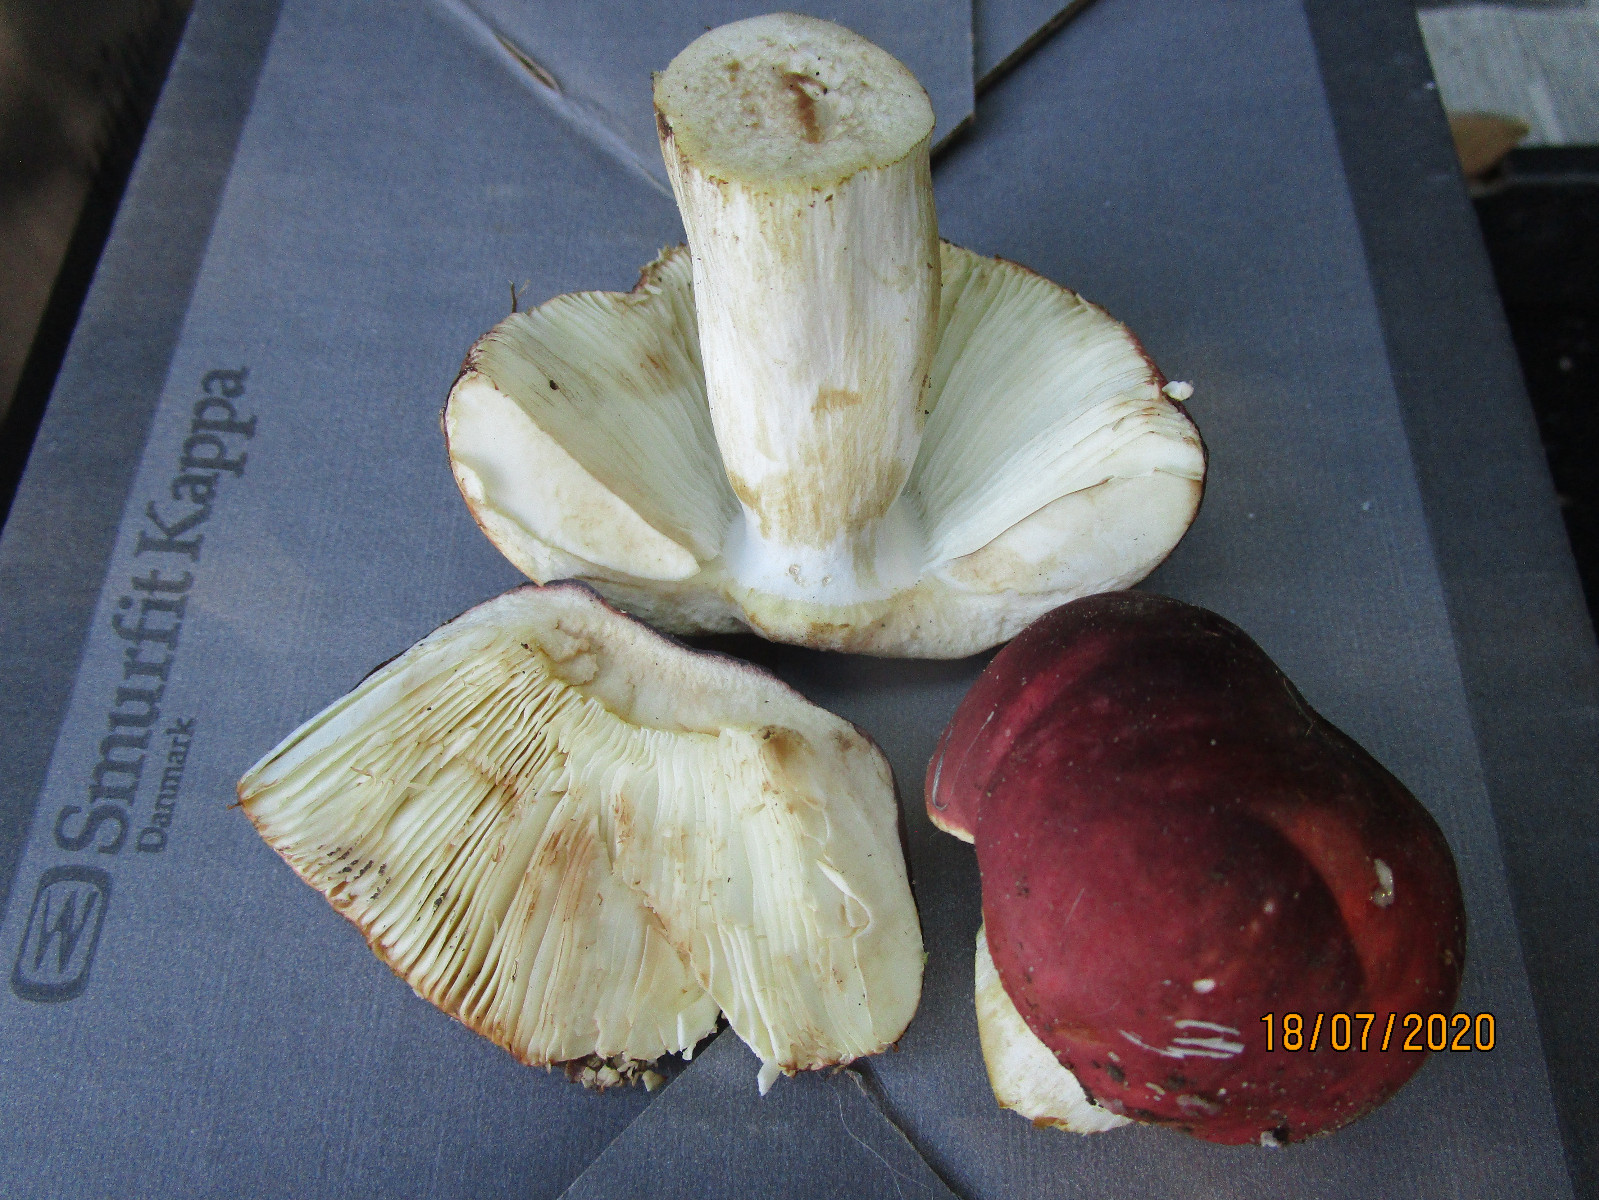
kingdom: Fungi
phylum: Basidiomycota
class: Agaricomycetes
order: Russulales
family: Russulaceae
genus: Russula
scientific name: Russula graveolens
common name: bugtet skørhat
